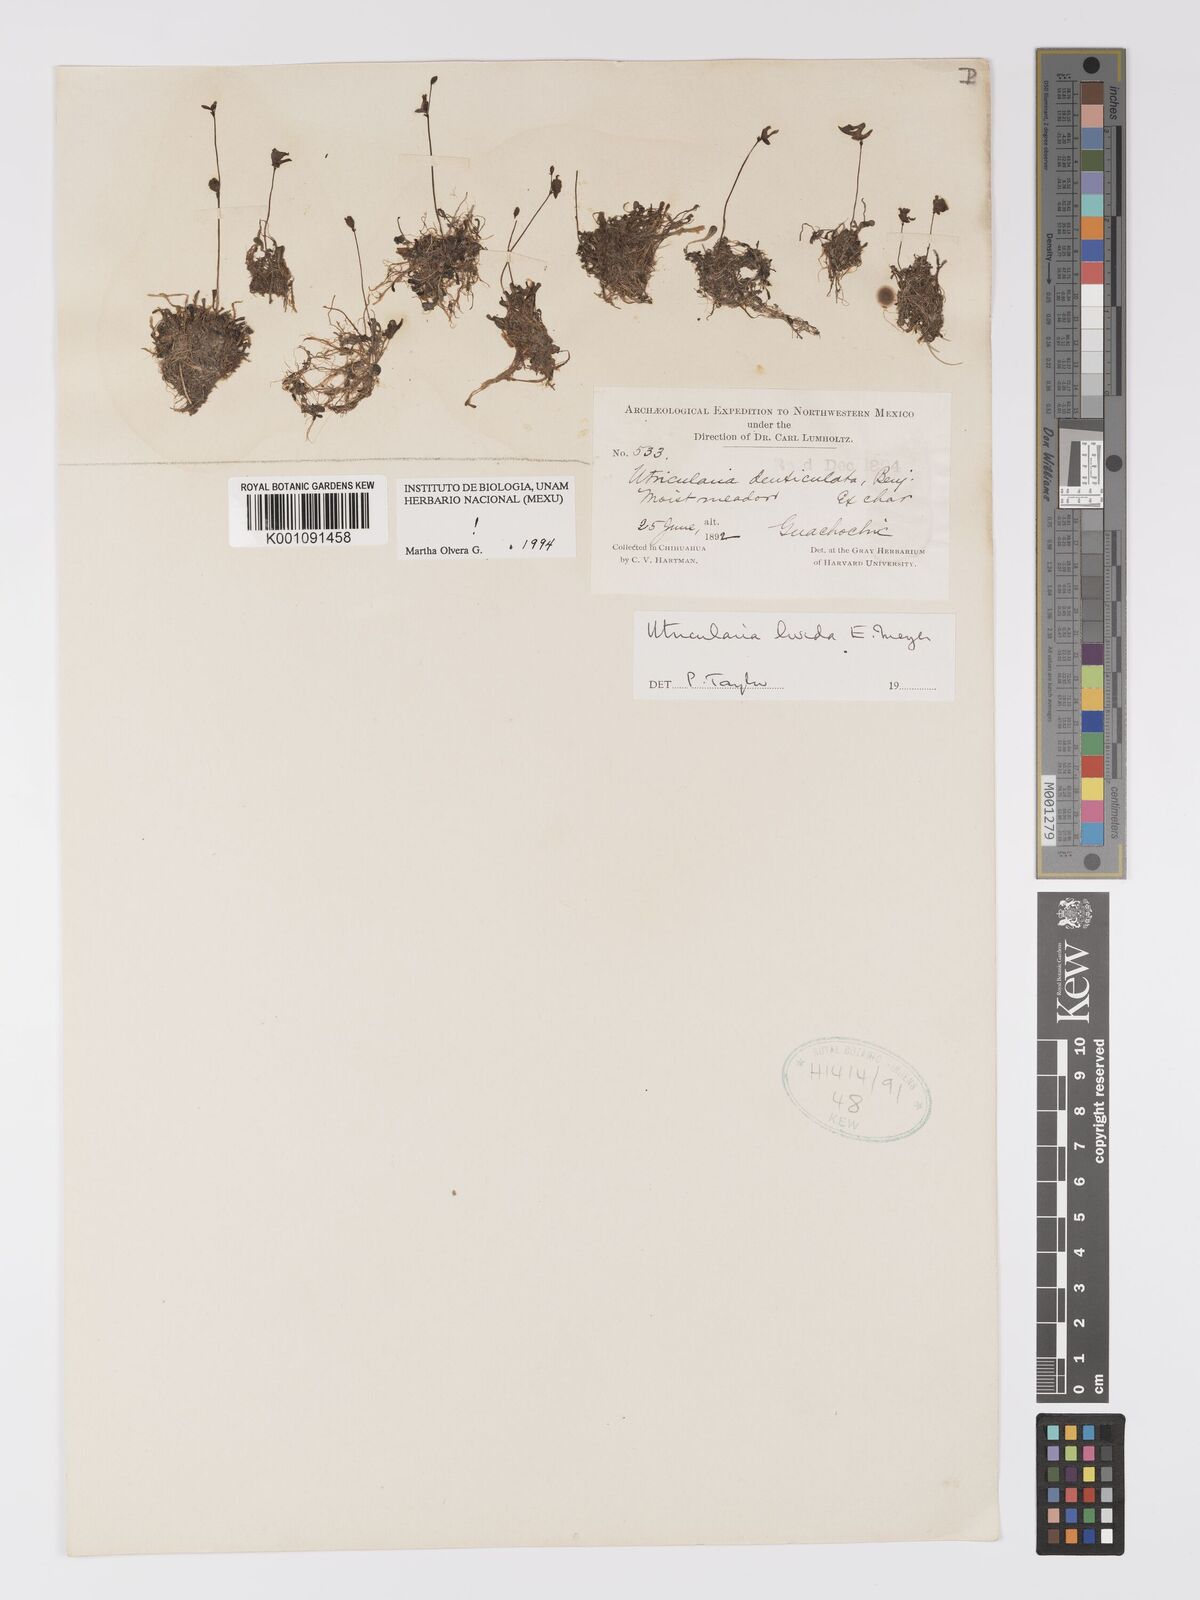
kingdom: Plantae
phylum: Tracheophyta
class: Magnoliopsida
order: Lamiales
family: Lentibulariaceae
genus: Utricularia
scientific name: Utricularia livida
